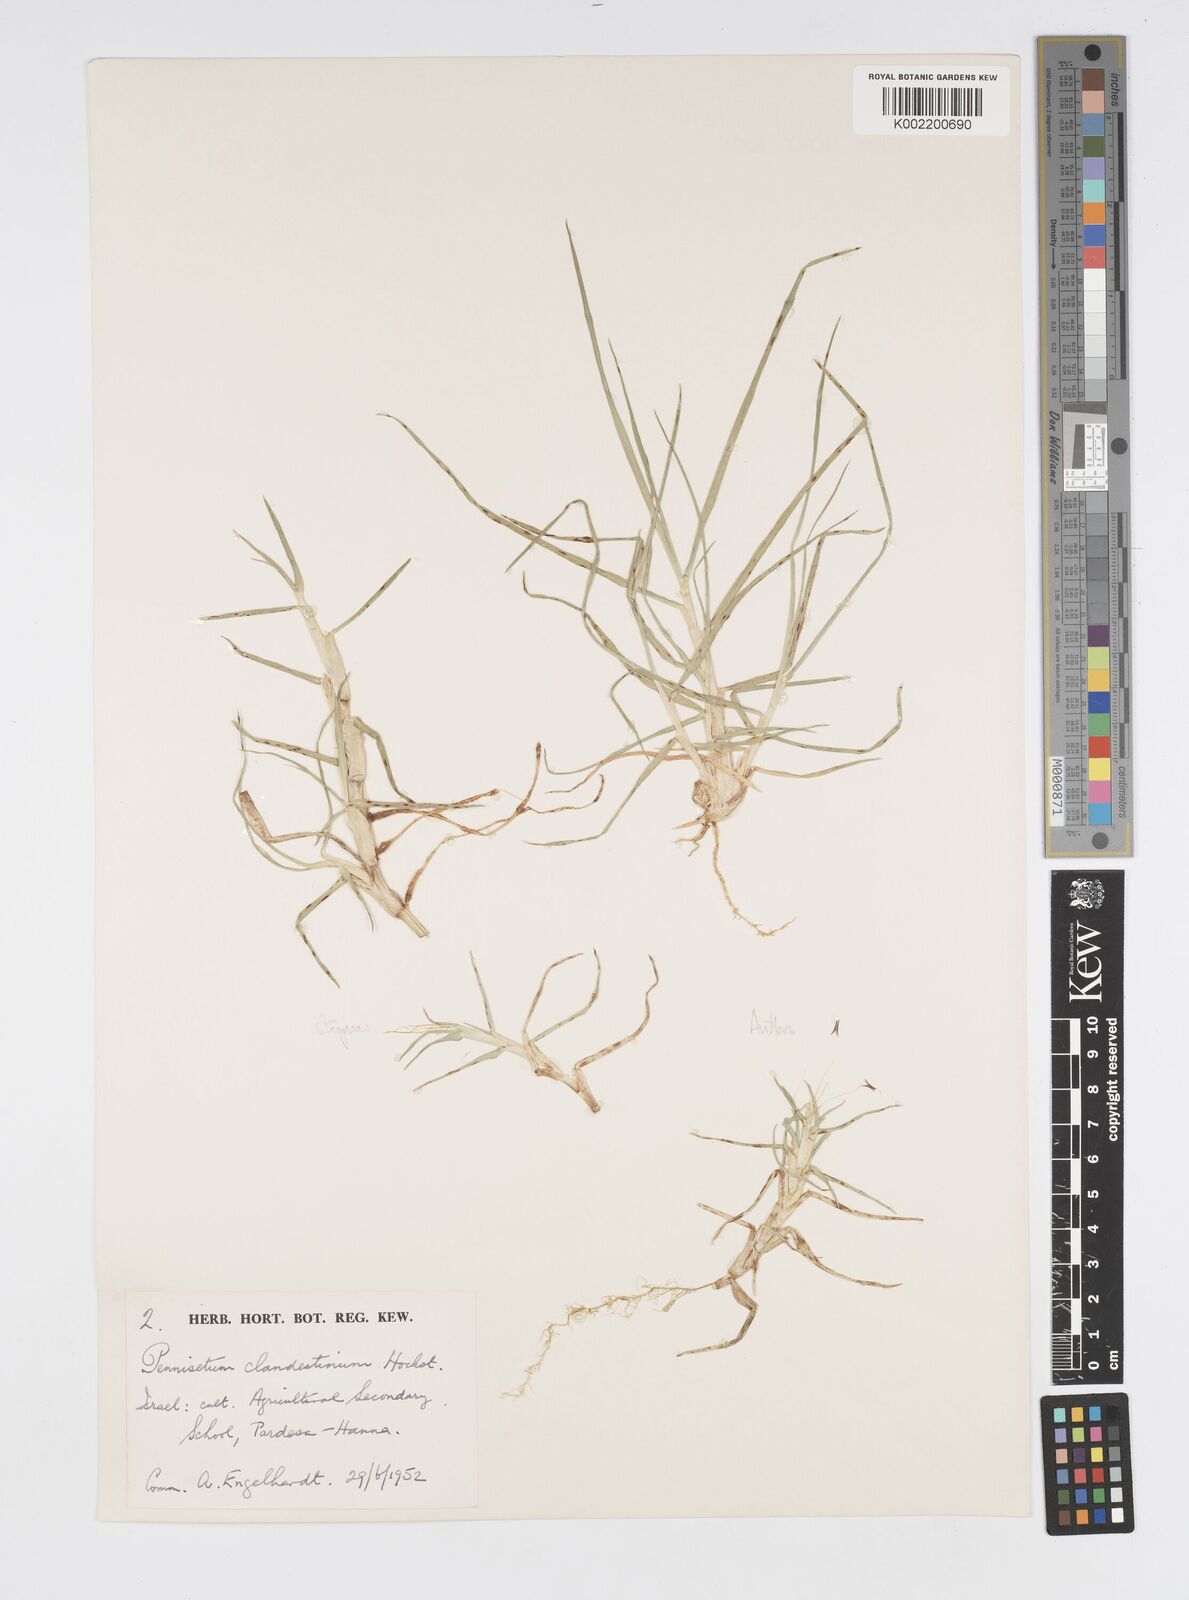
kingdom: Plantae
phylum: Tracheophyta
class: Liliopsida
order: Poales
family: Poaceae
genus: Cenchrus
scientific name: Cenchrus clandestinus
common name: Kikuyugrass
